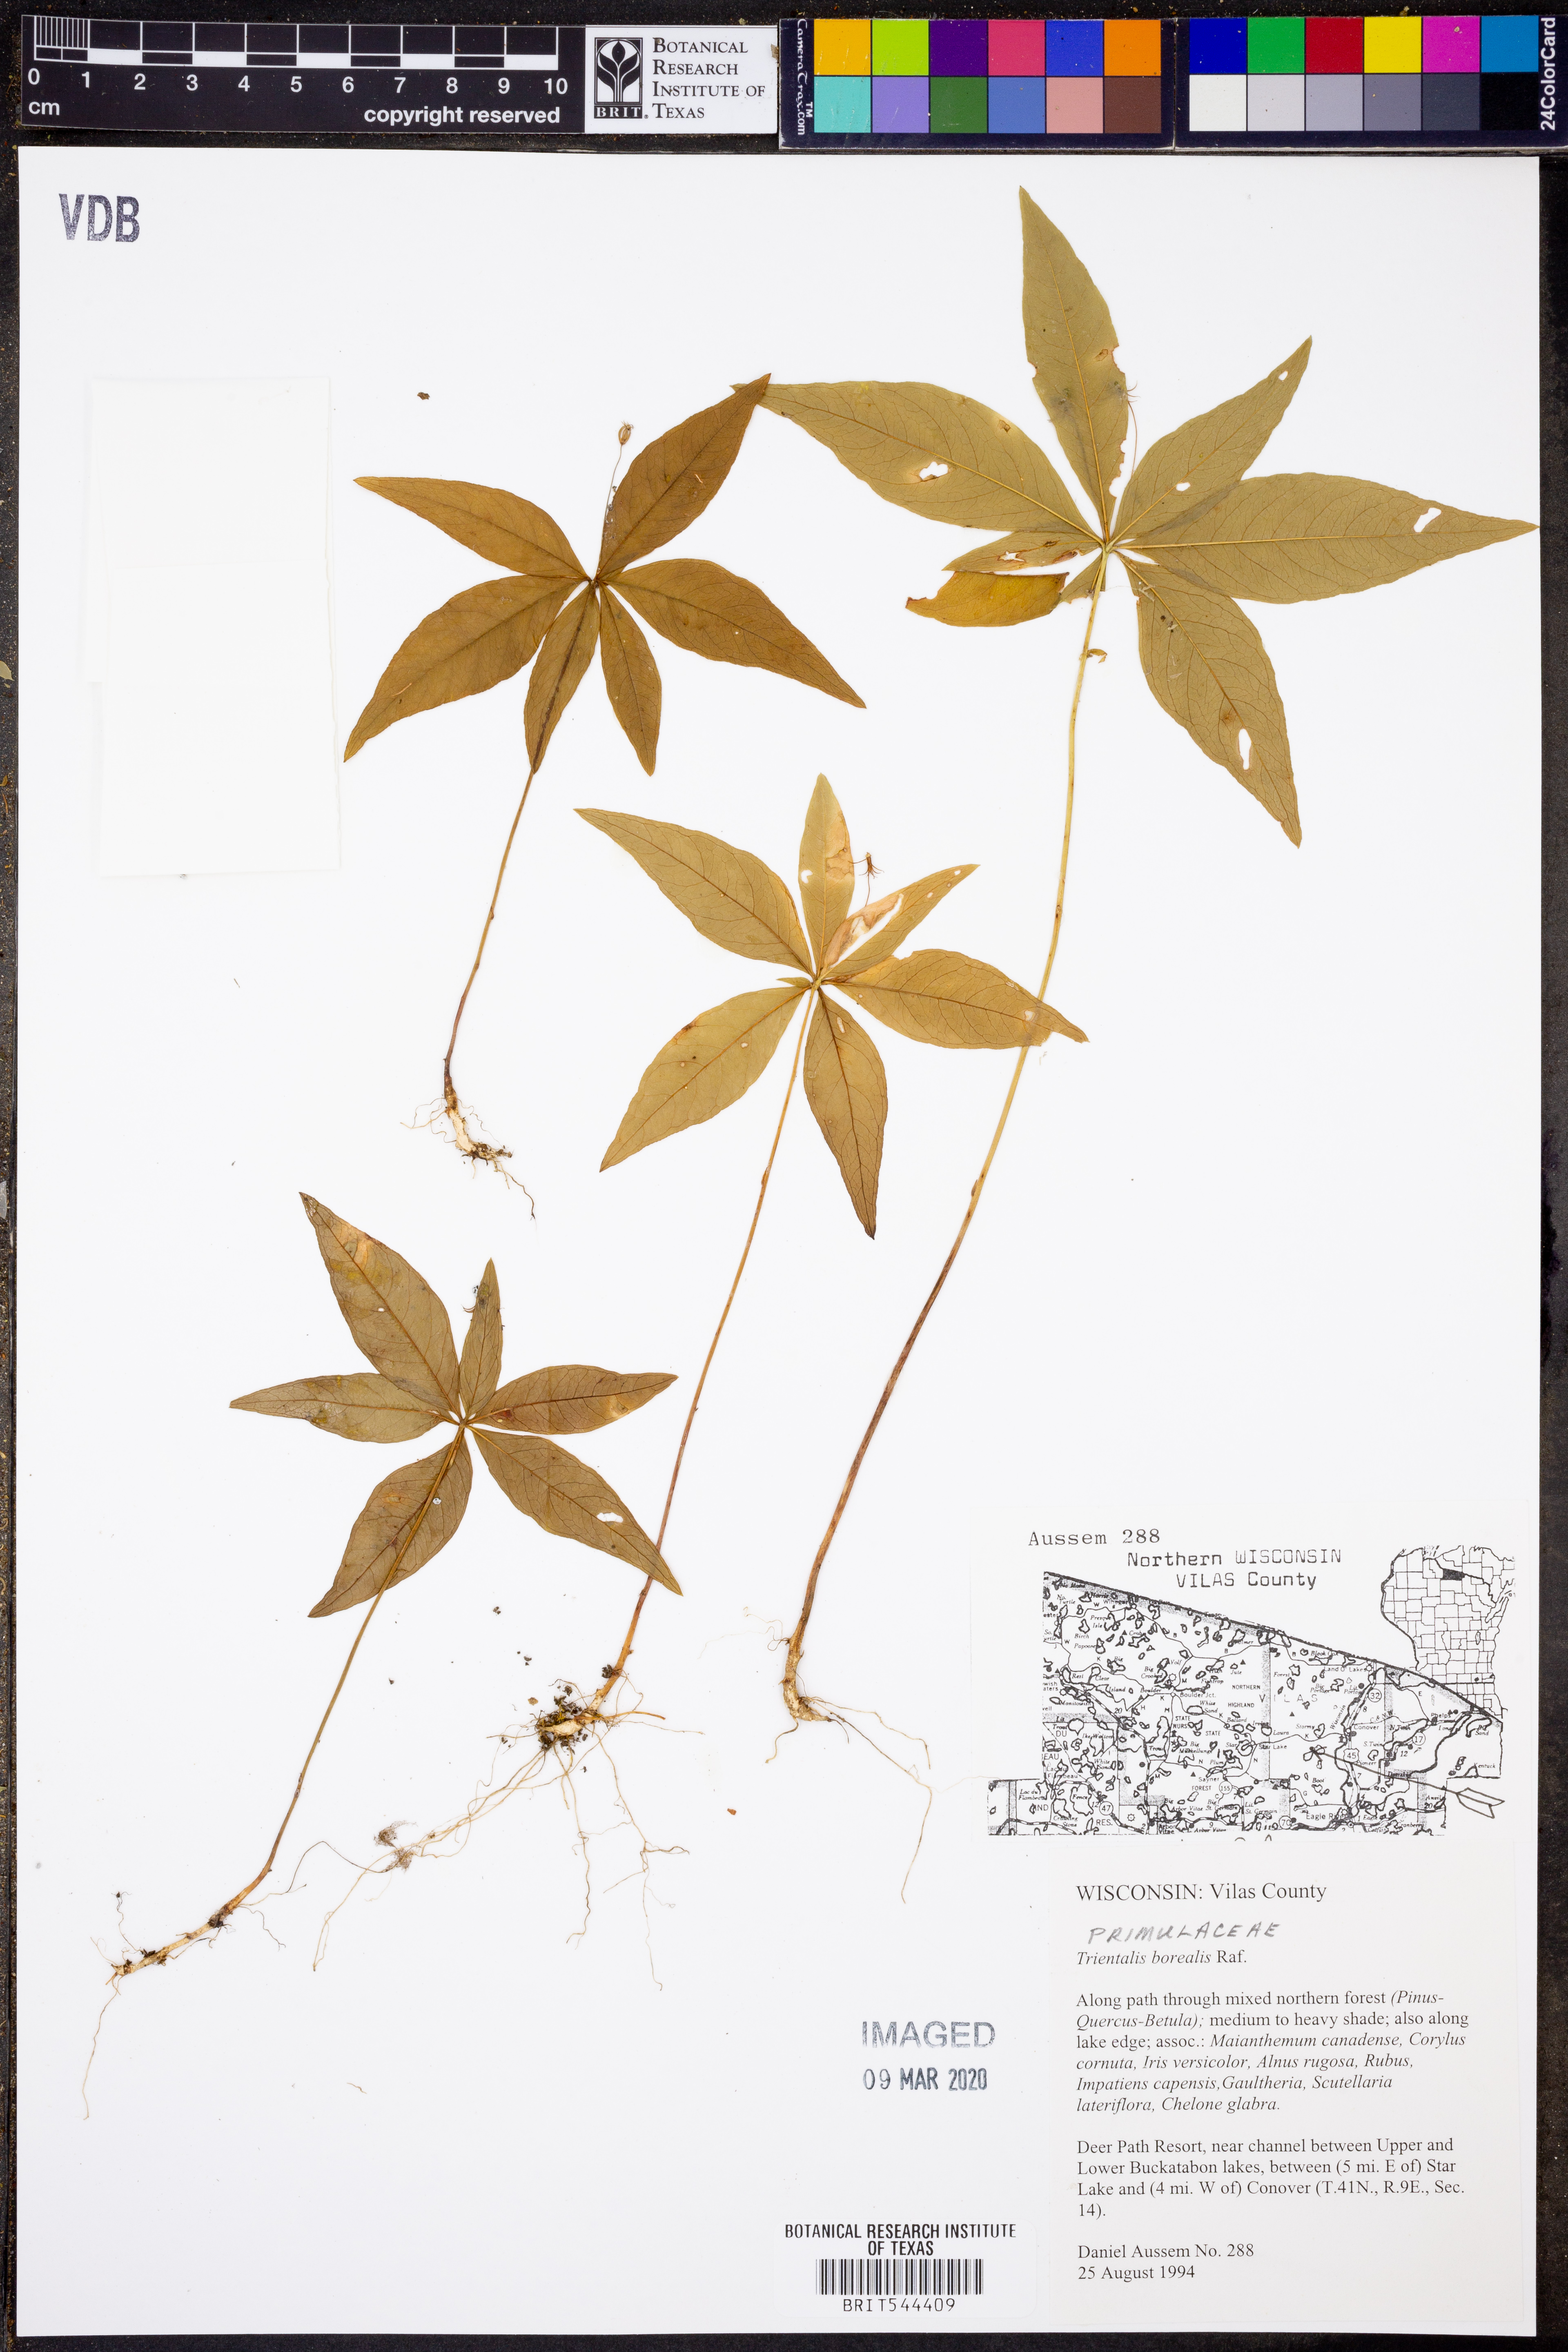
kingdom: Plantae
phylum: Tracheophyta
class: Magnoliopsida
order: Ericales
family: Primulaceae
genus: Lysimachia
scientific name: Lysimachia borealis
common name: American starflower
